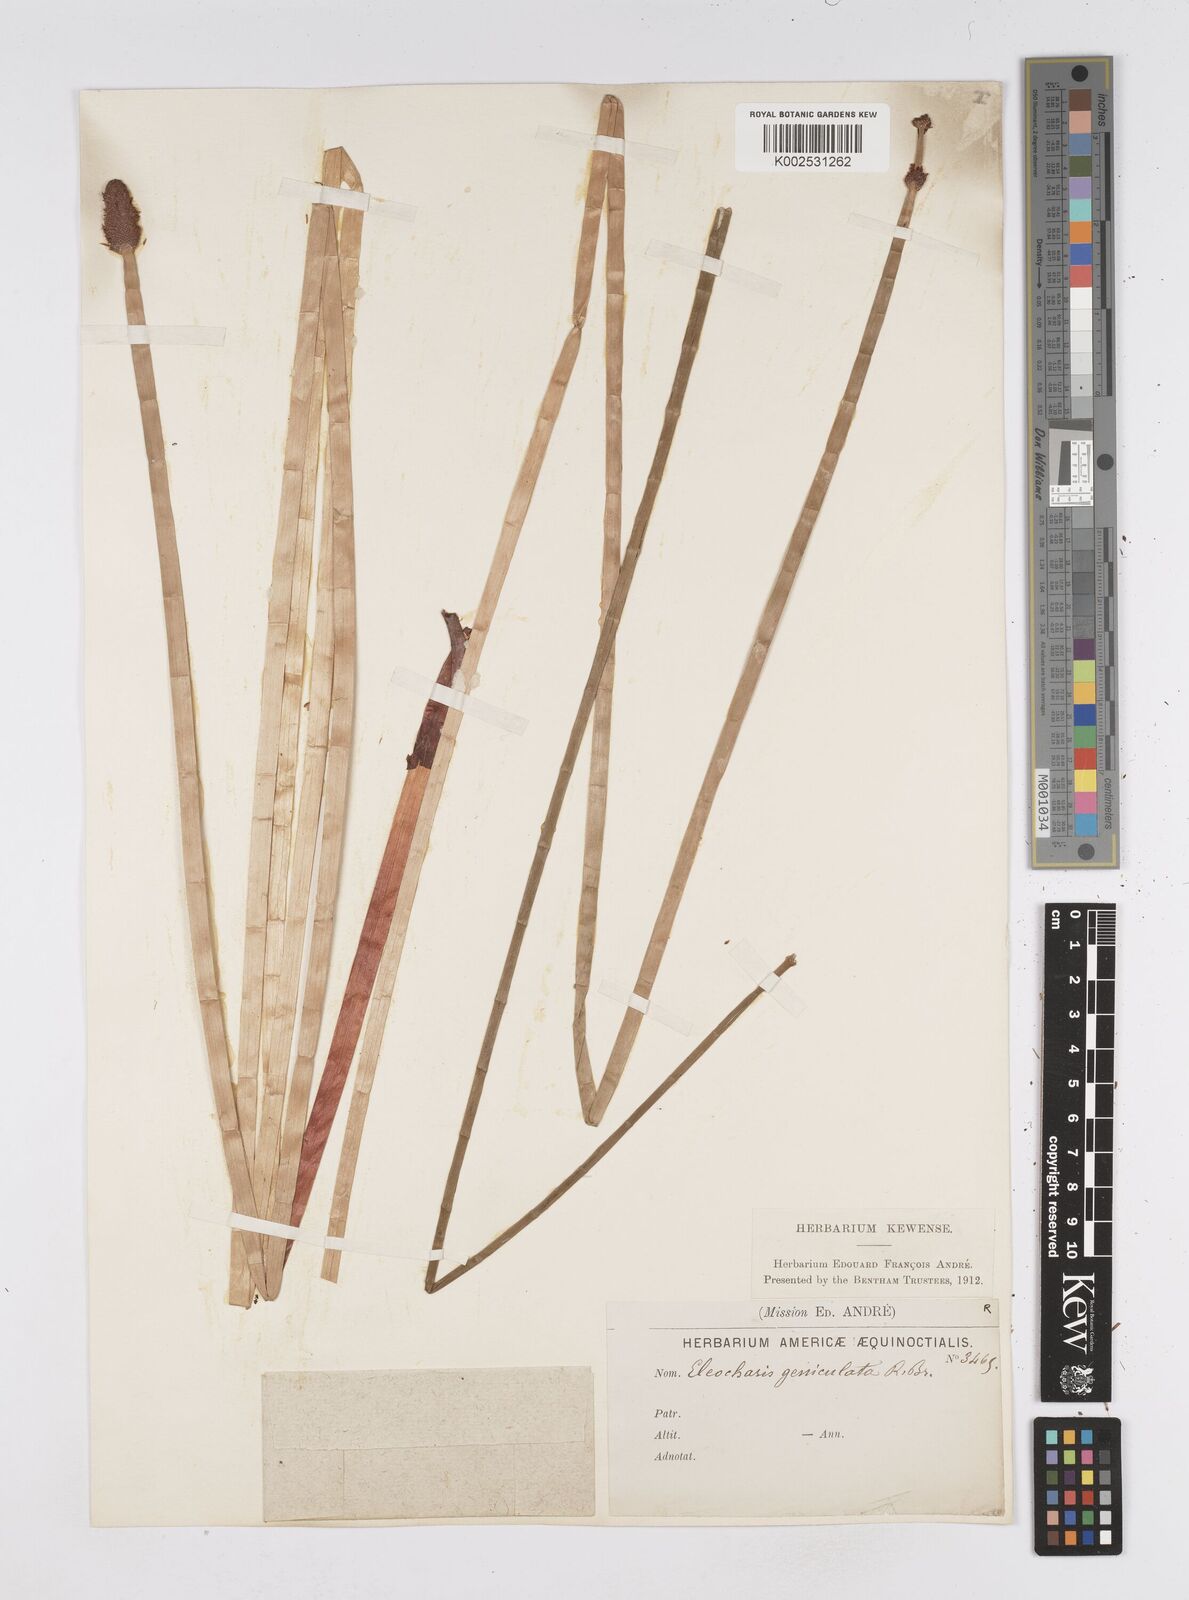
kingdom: Plantae
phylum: Tracheophyta
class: Liliopsida
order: Poales
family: Cyperaceae
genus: Eleocharis
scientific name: Eleocharis elegans
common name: Elegant spike-rush
